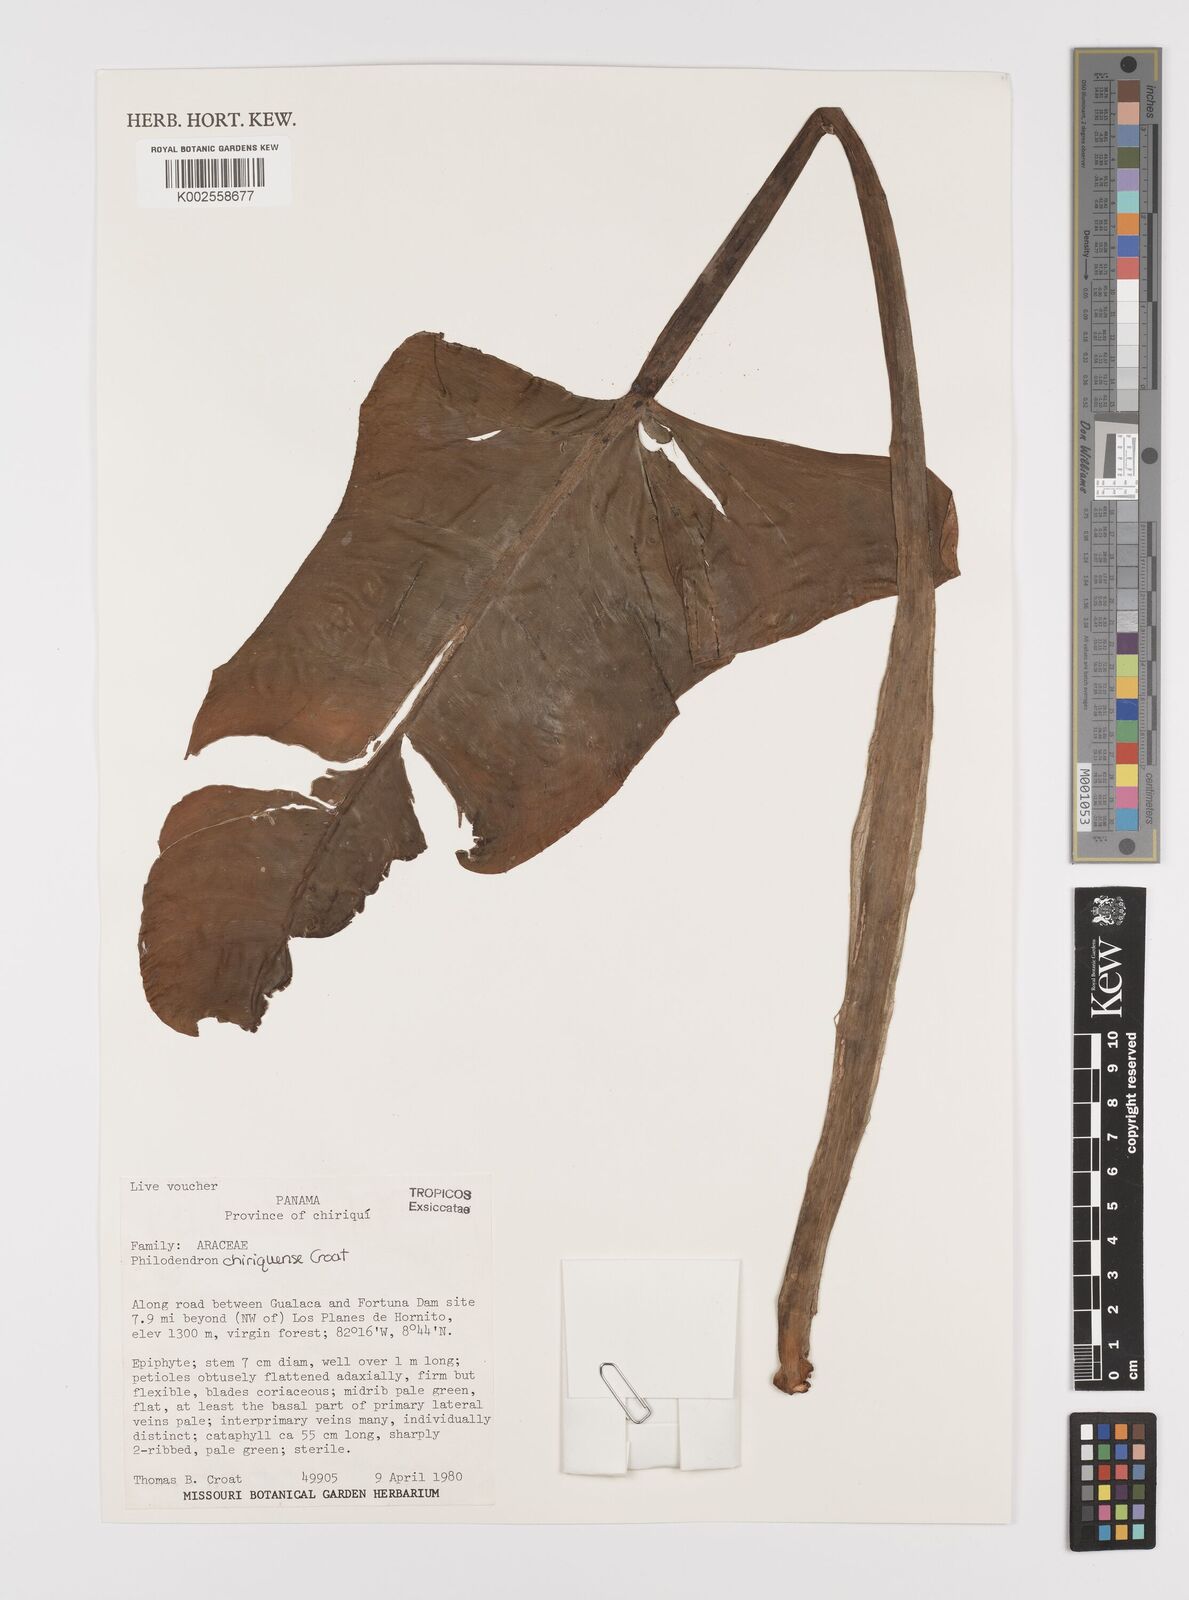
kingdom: Plantae
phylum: Tracheophyta
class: Liliopsida
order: Alismatales
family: Araceae
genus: Philodendron
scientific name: Philodendron chiriquense
